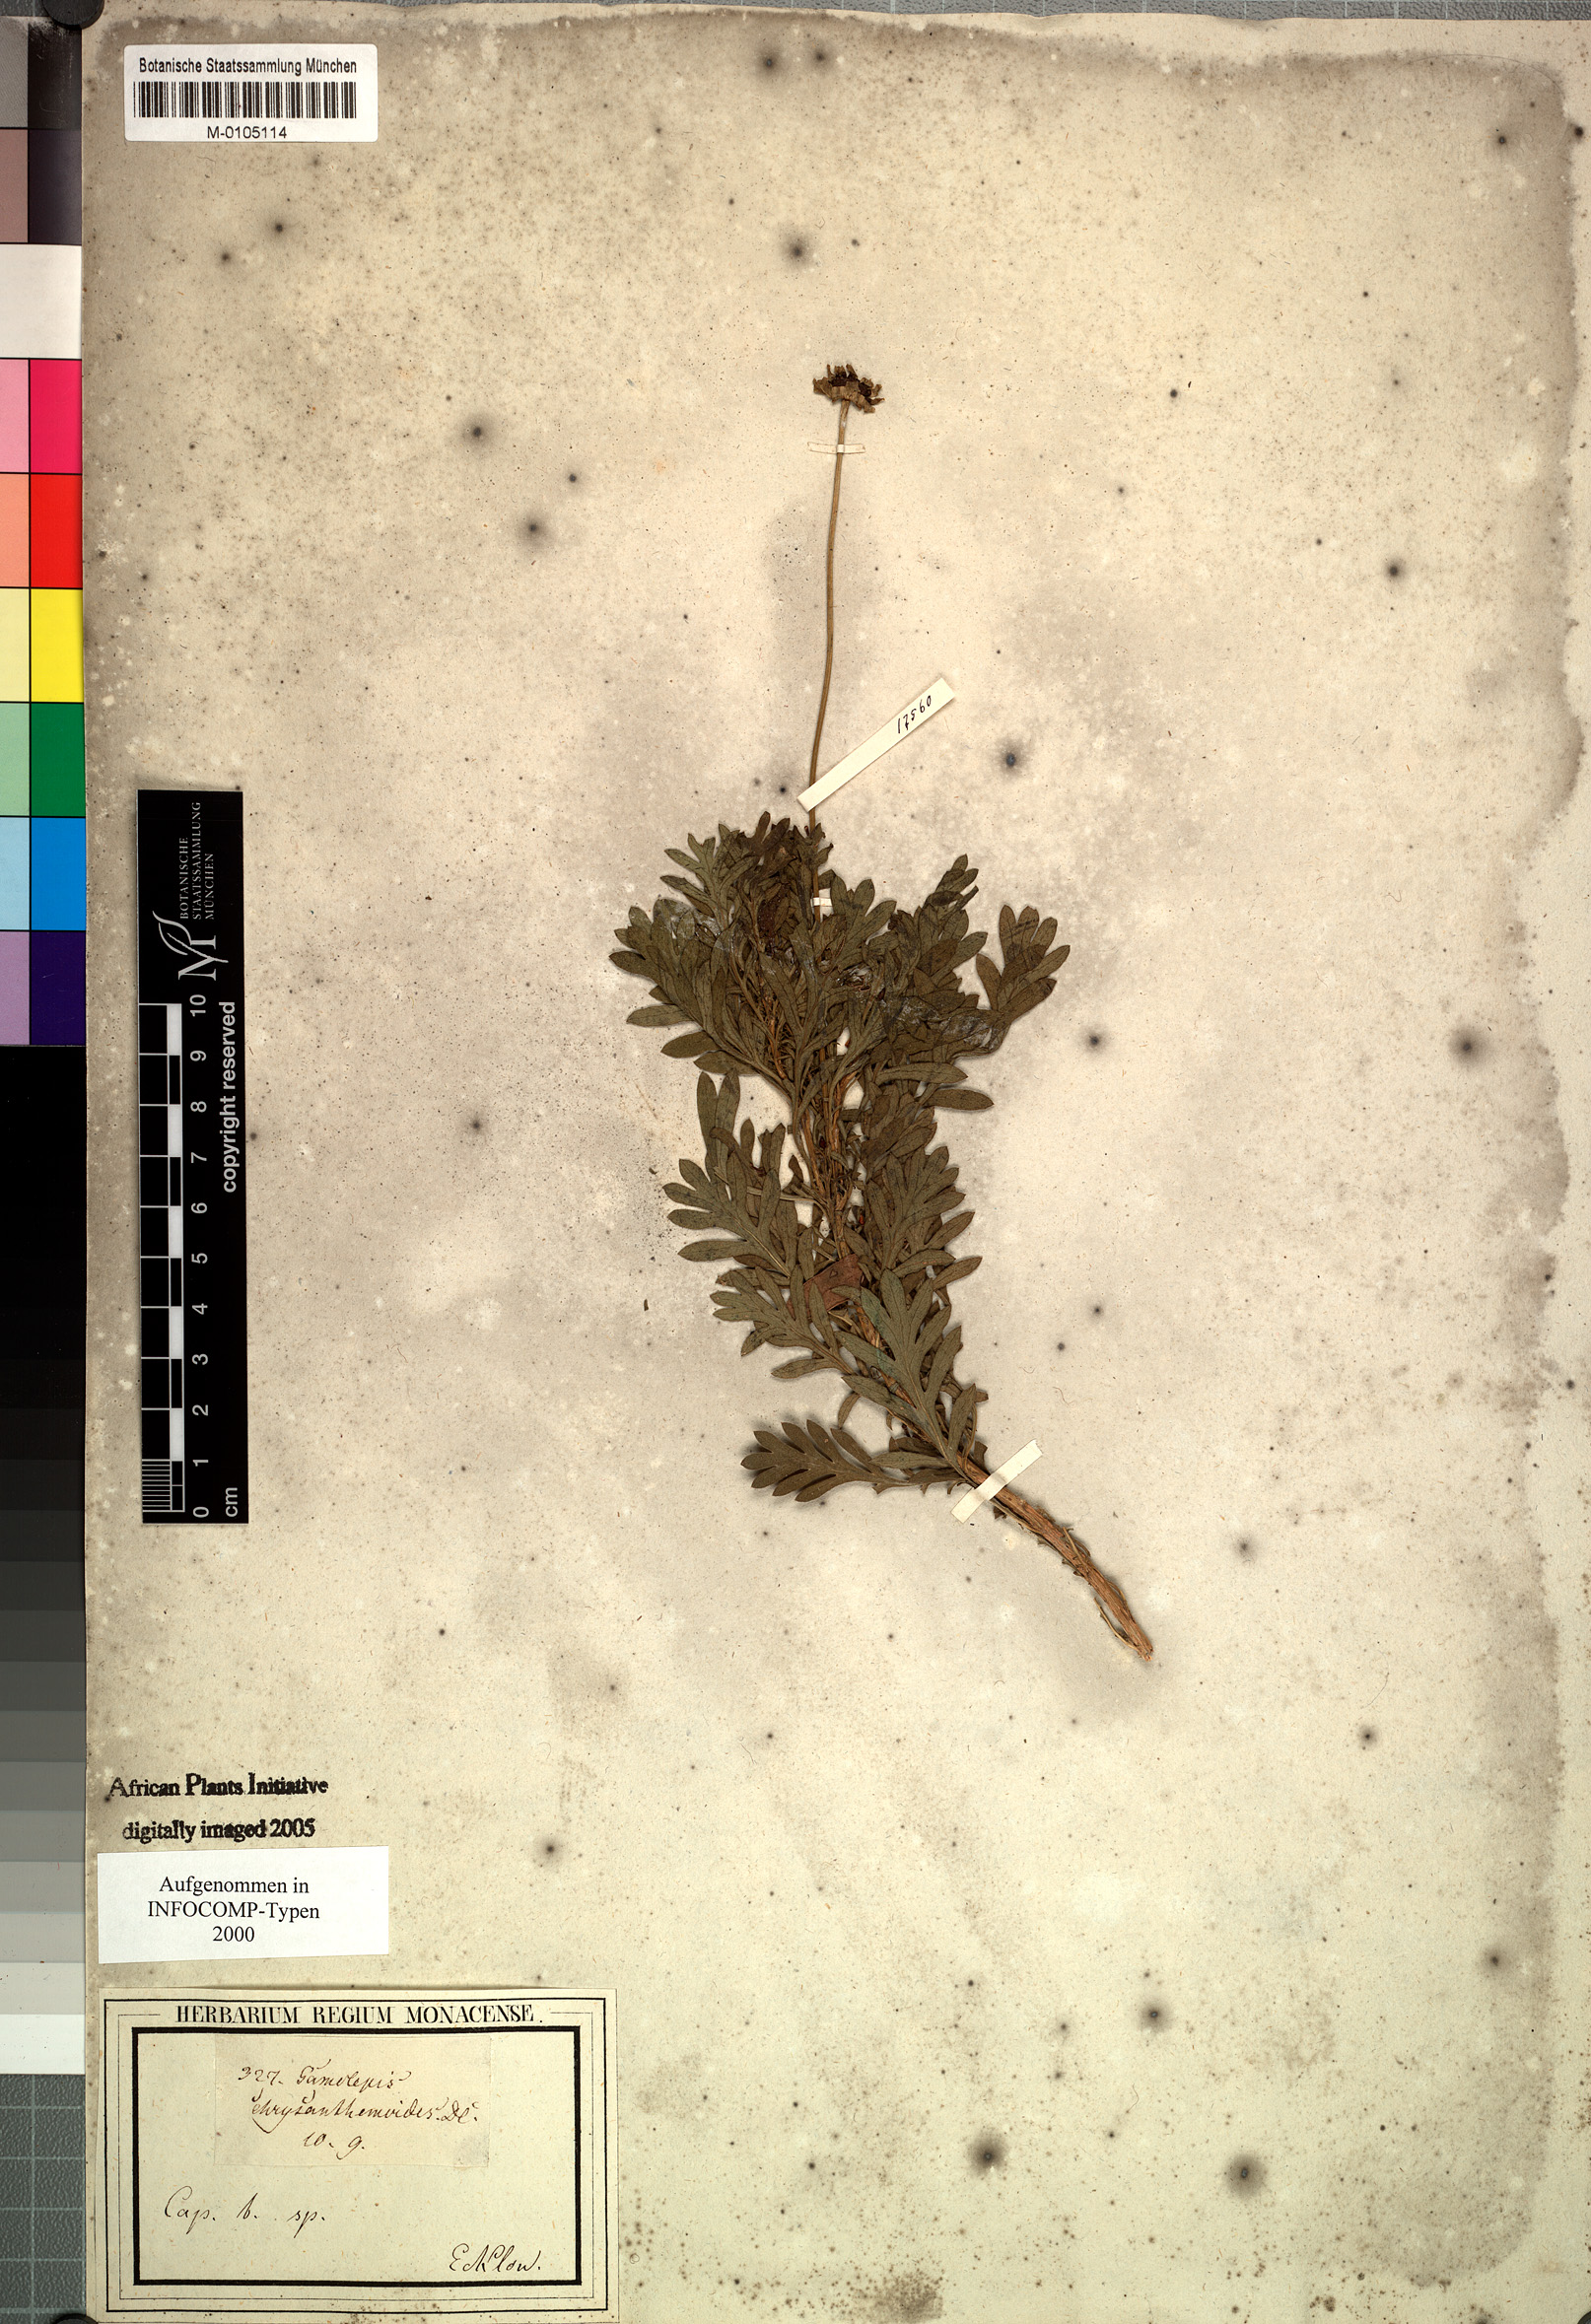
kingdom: Plantae
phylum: Tracheophyta
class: Magnoliopsida
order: Asterales
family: Asteraceae
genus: Euryops
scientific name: Euryops chrysanthemoides
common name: Bull's eye
